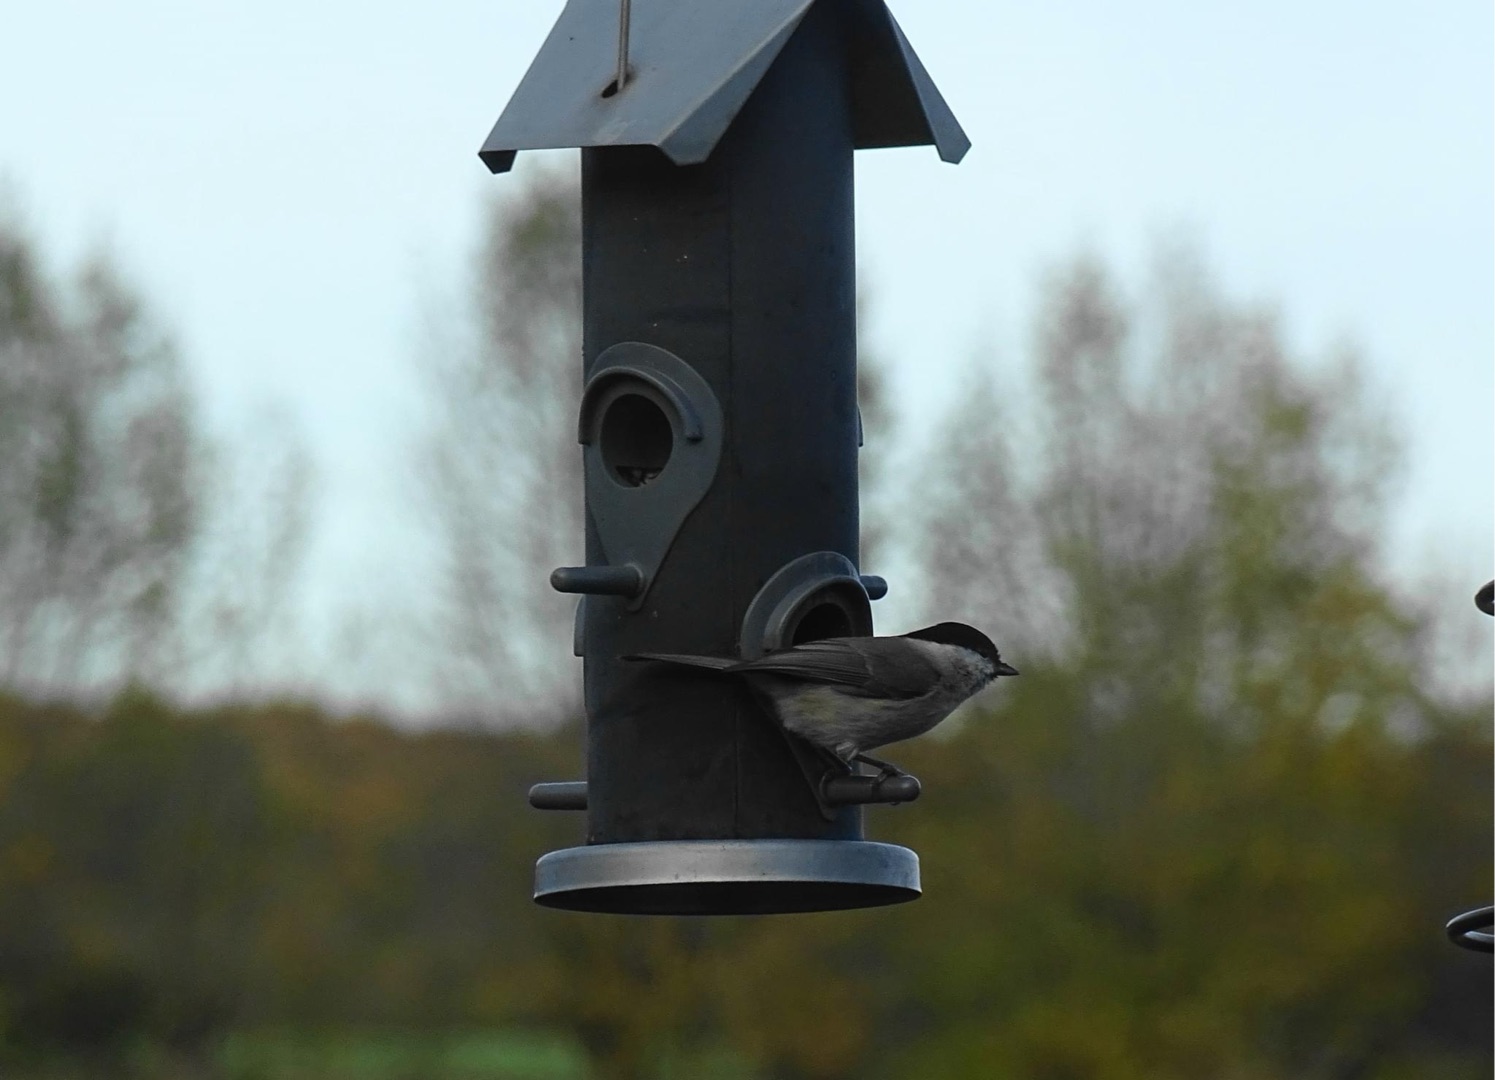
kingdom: Animalia
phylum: Chordata
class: Aves
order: Passeriformes
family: Paridae
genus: Poecile
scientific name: Poecile palustris
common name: Sumpmejse
